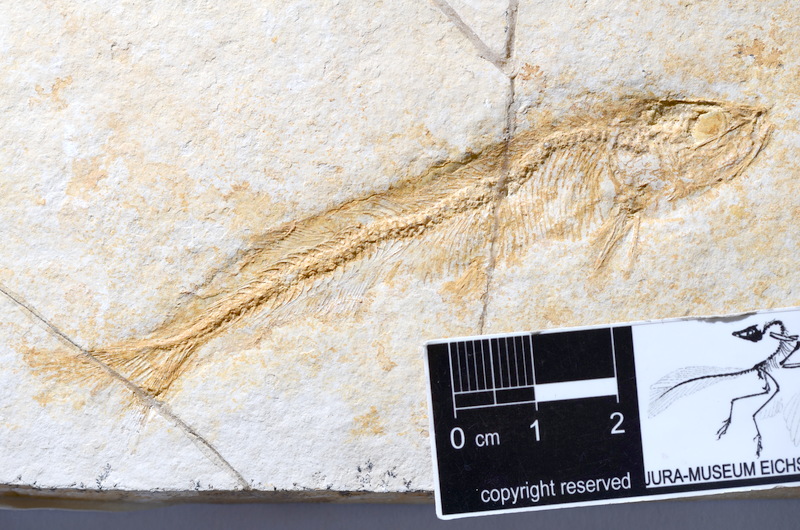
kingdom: Animalia
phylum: Chordata
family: Allothrissopidae
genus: Allothrissops
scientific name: Allothrissops mesogaster
